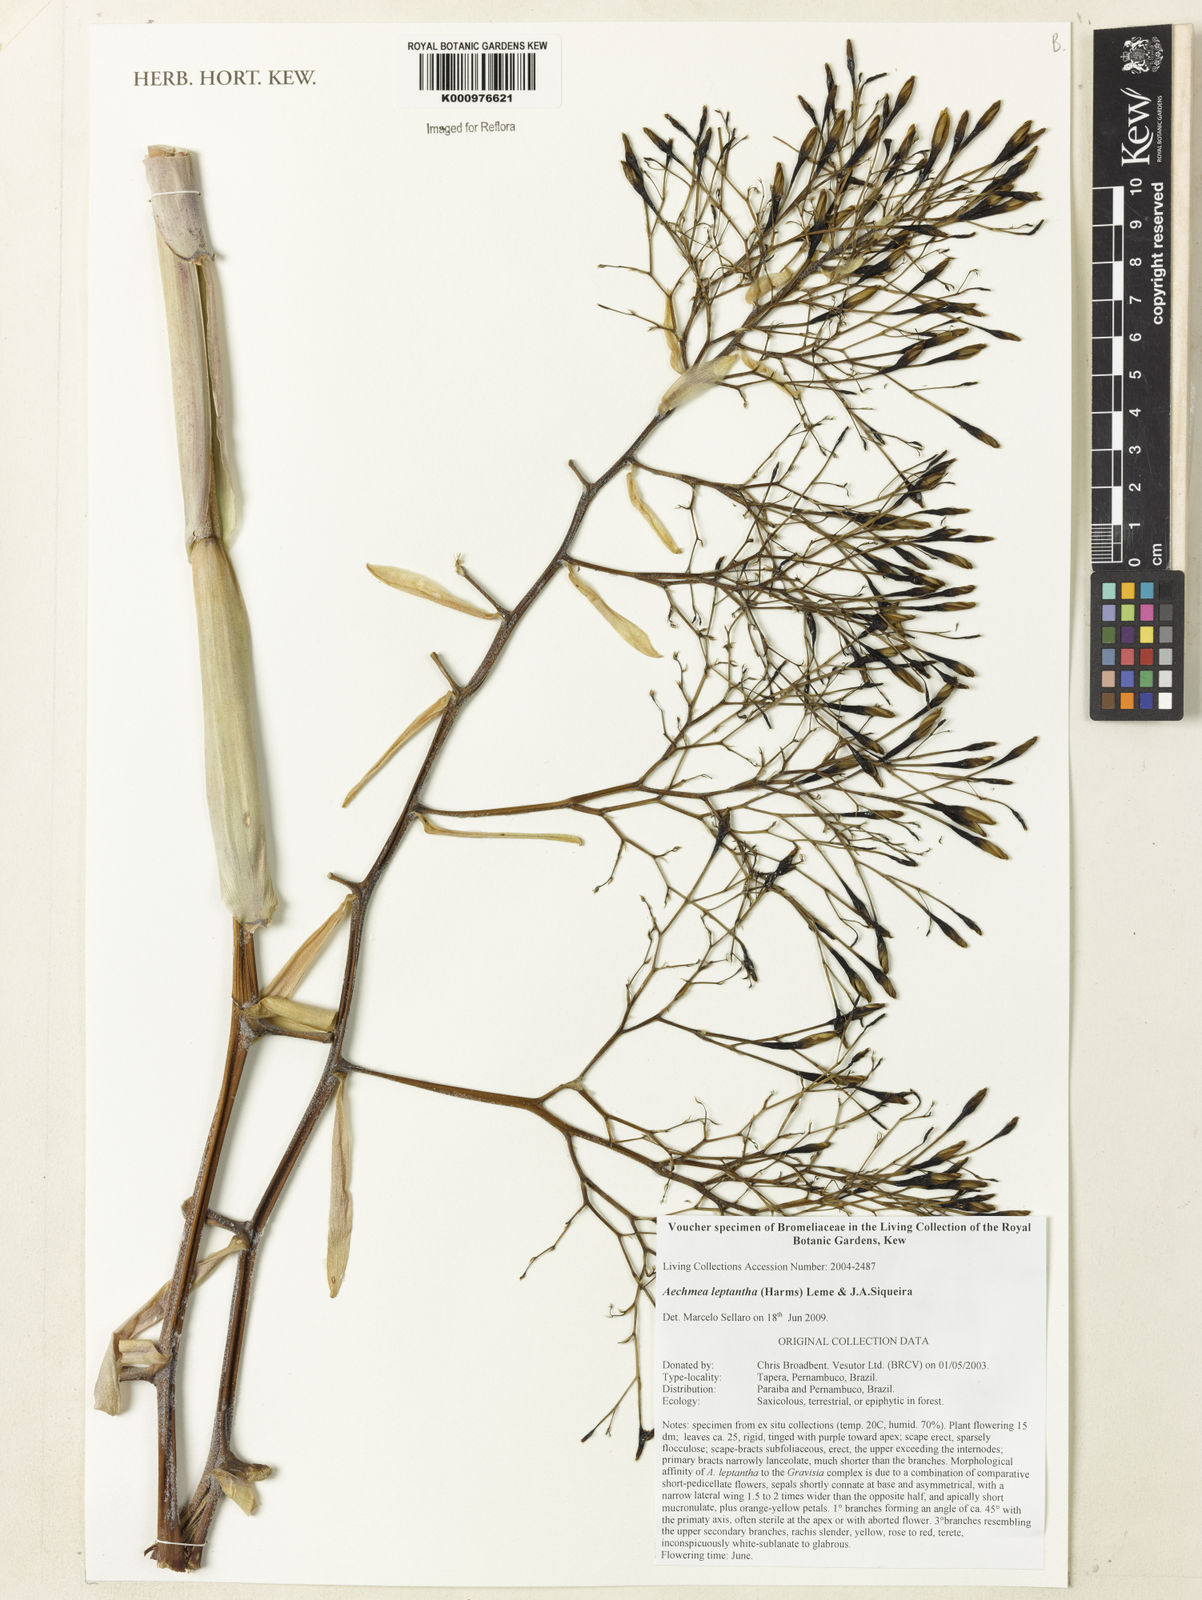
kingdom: Plantae
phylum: Tracheophyta
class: Liliopsida
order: Poales
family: Bromeliaceae
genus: Aechmea
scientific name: Aechmea leptantha
